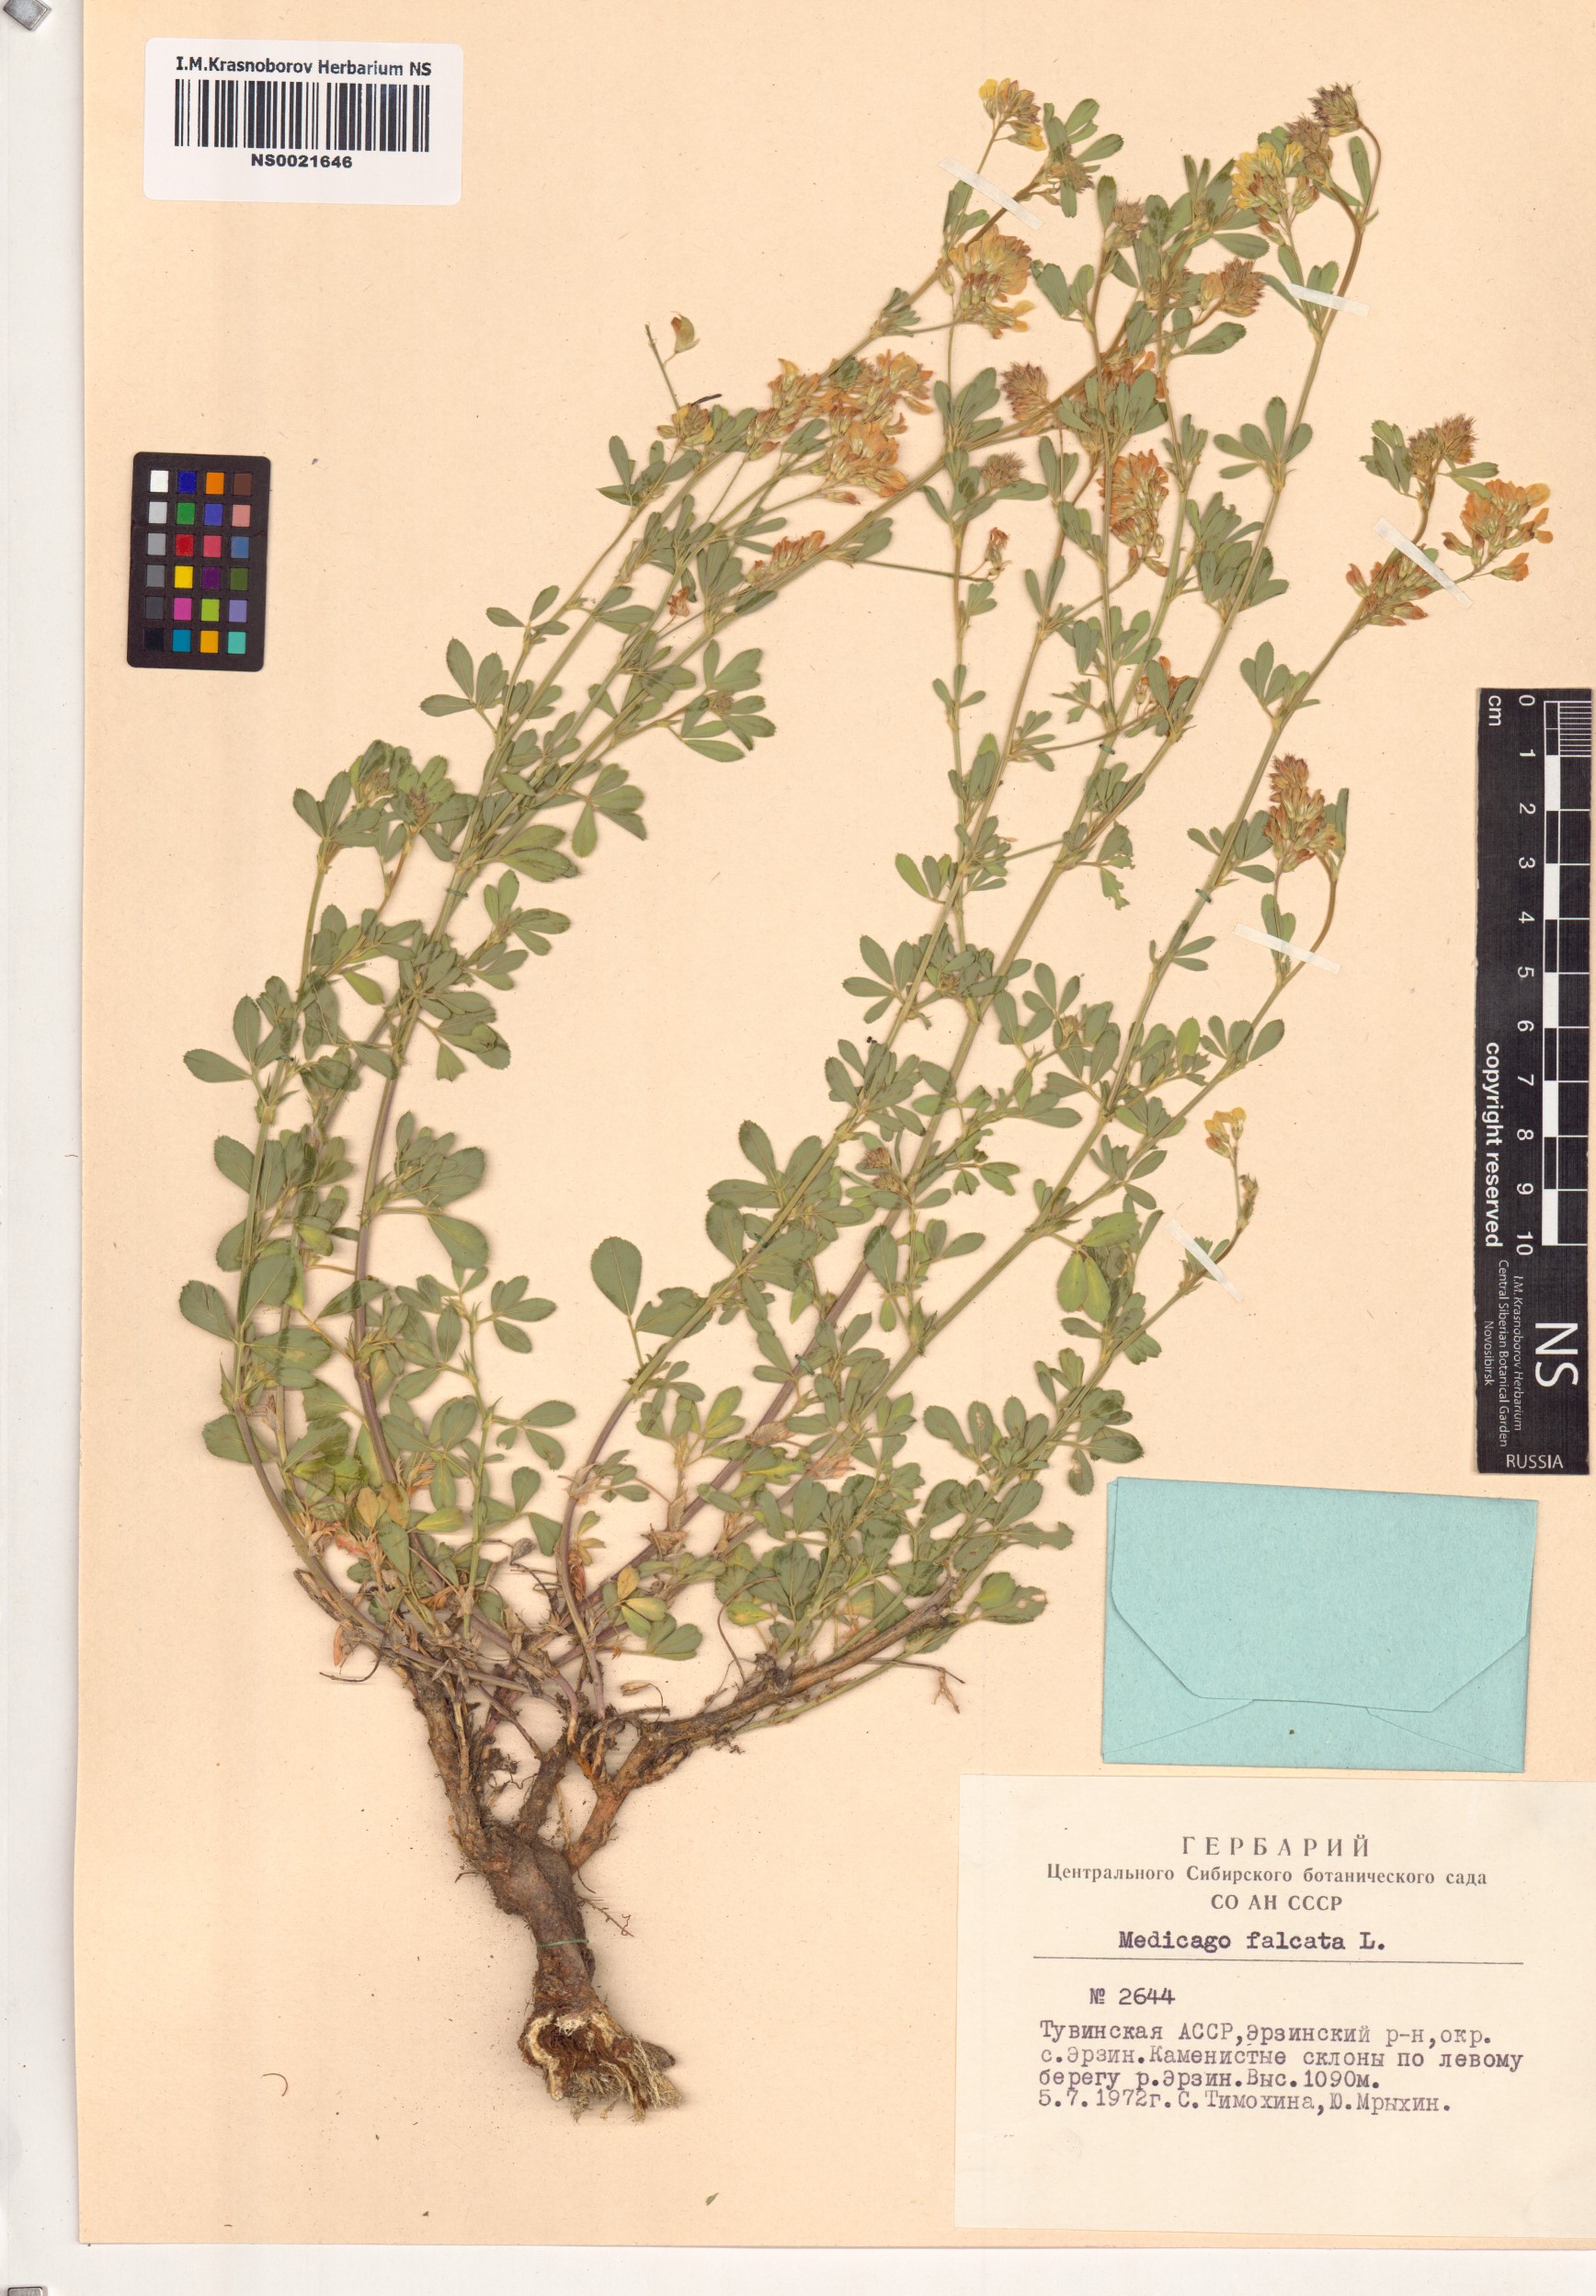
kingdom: Plantae
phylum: Tracheophyta
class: Magnoliopsida
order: Fabales
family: Fabaceae
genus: Medicago
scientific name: Medicago falcata
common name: Sickle medick
